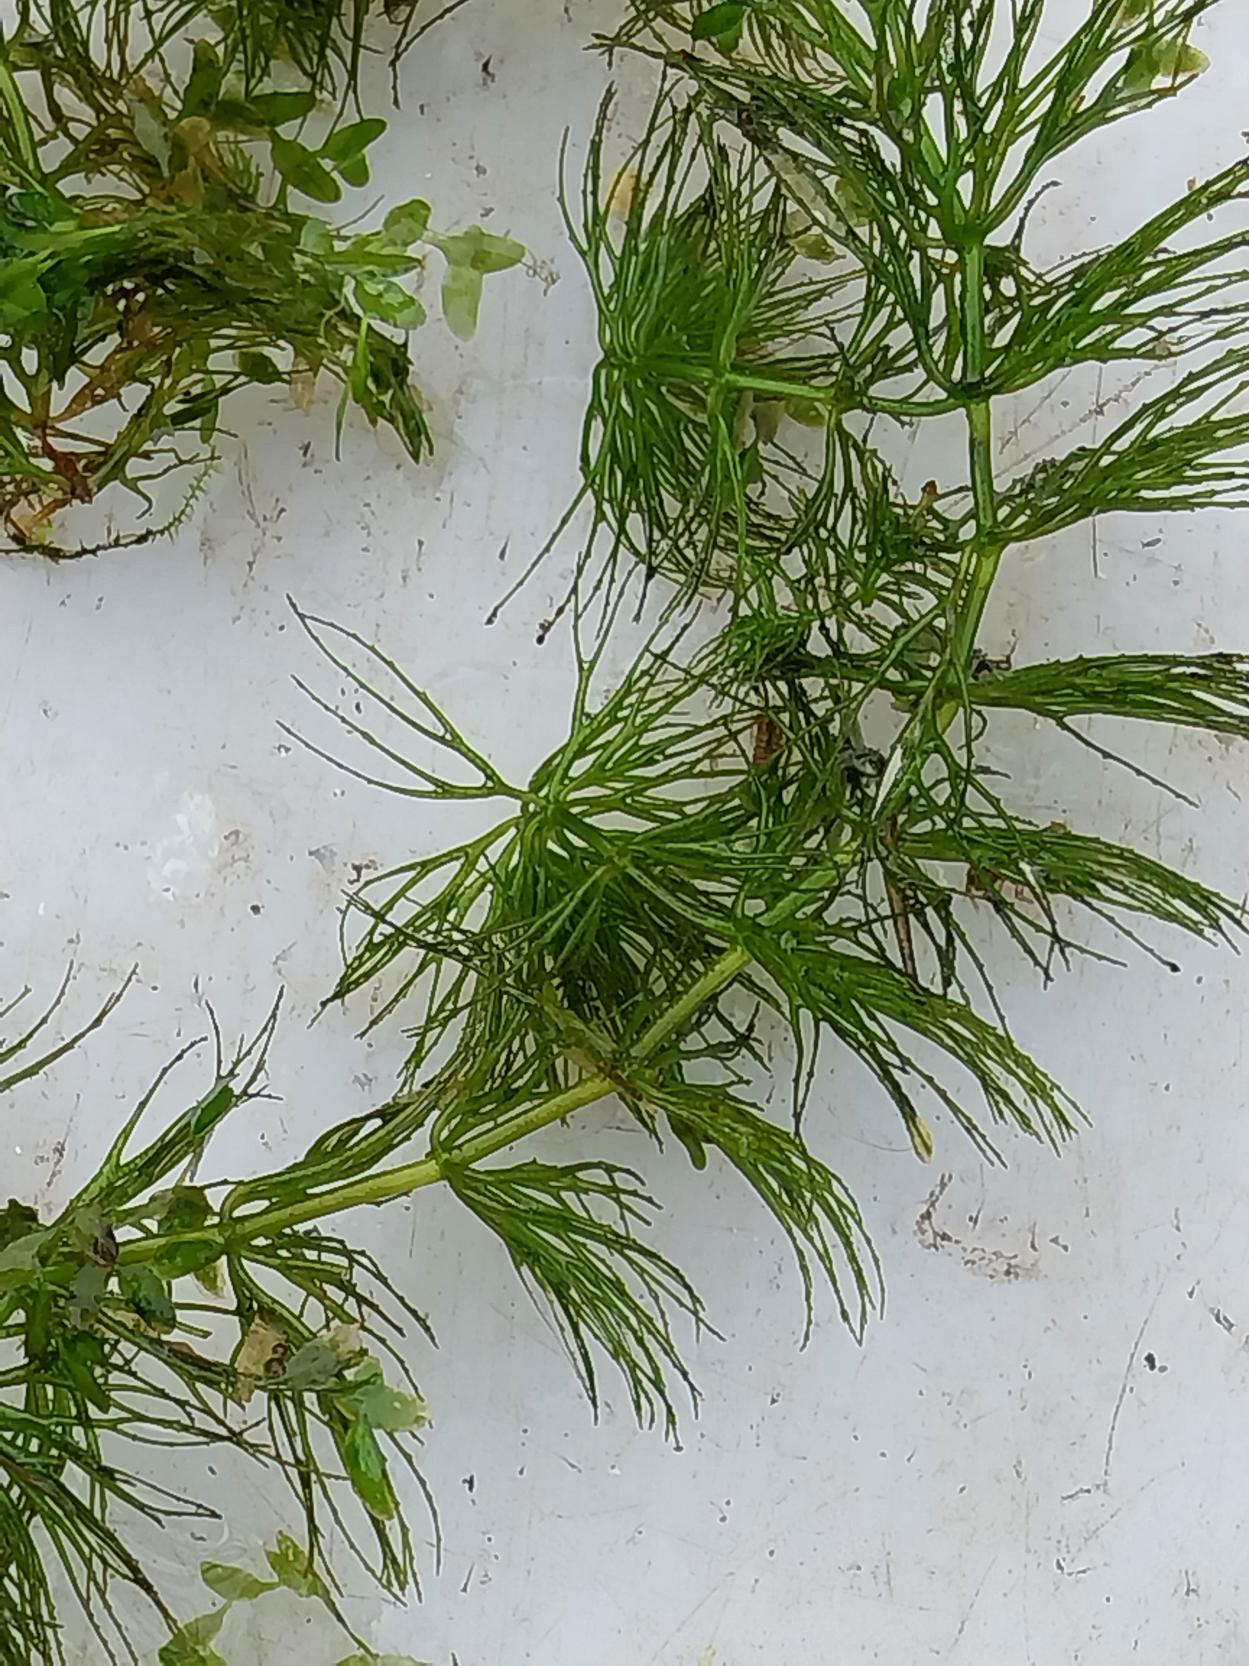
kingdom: Plantae
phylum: Tracheophyta
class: Magnoliopsida
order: Ceratophyllales
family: Ceratophyllaceae
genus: Ceratophyllum
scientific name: Ceratophyllum submersum
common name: Tornløs hornblad
